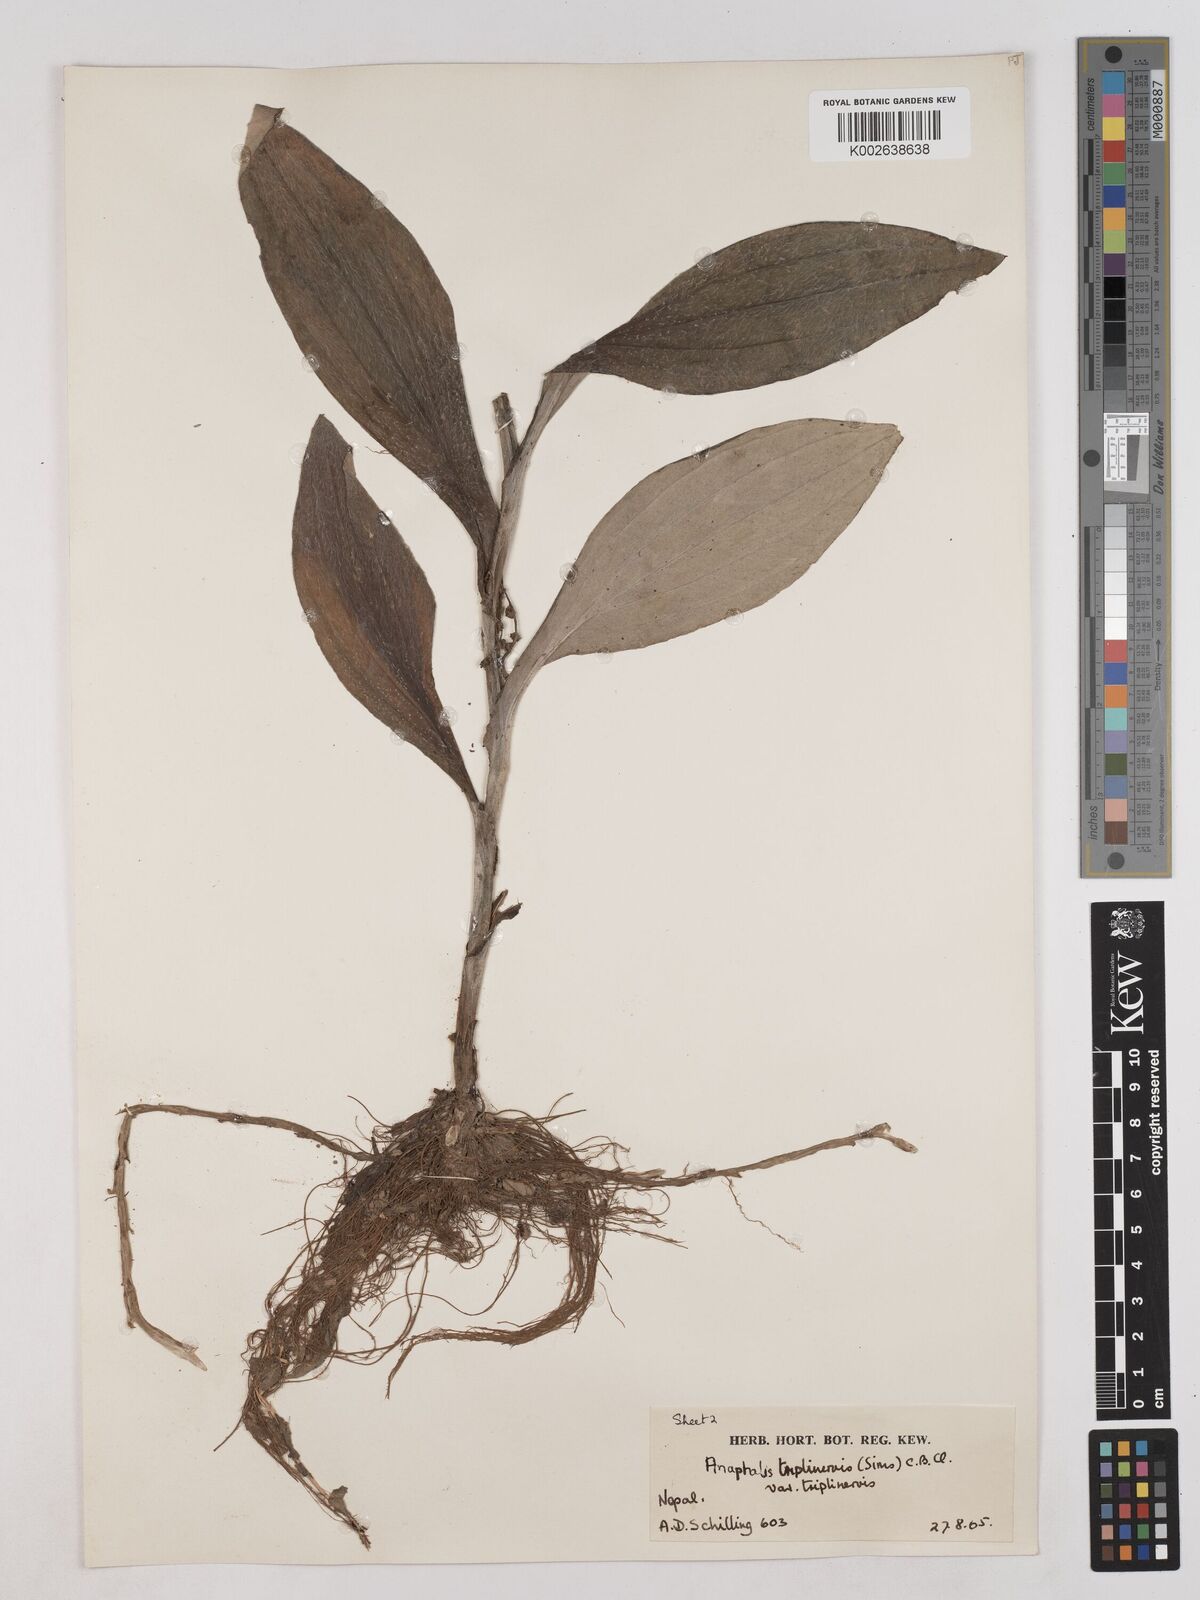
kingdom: Plantae
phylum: Tracheophyta
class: Magnoliopsida
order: Asterales
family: Asteraceae
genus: Anaphalis
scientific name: Anaphalis triplinervis
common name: Pearly everlasting
